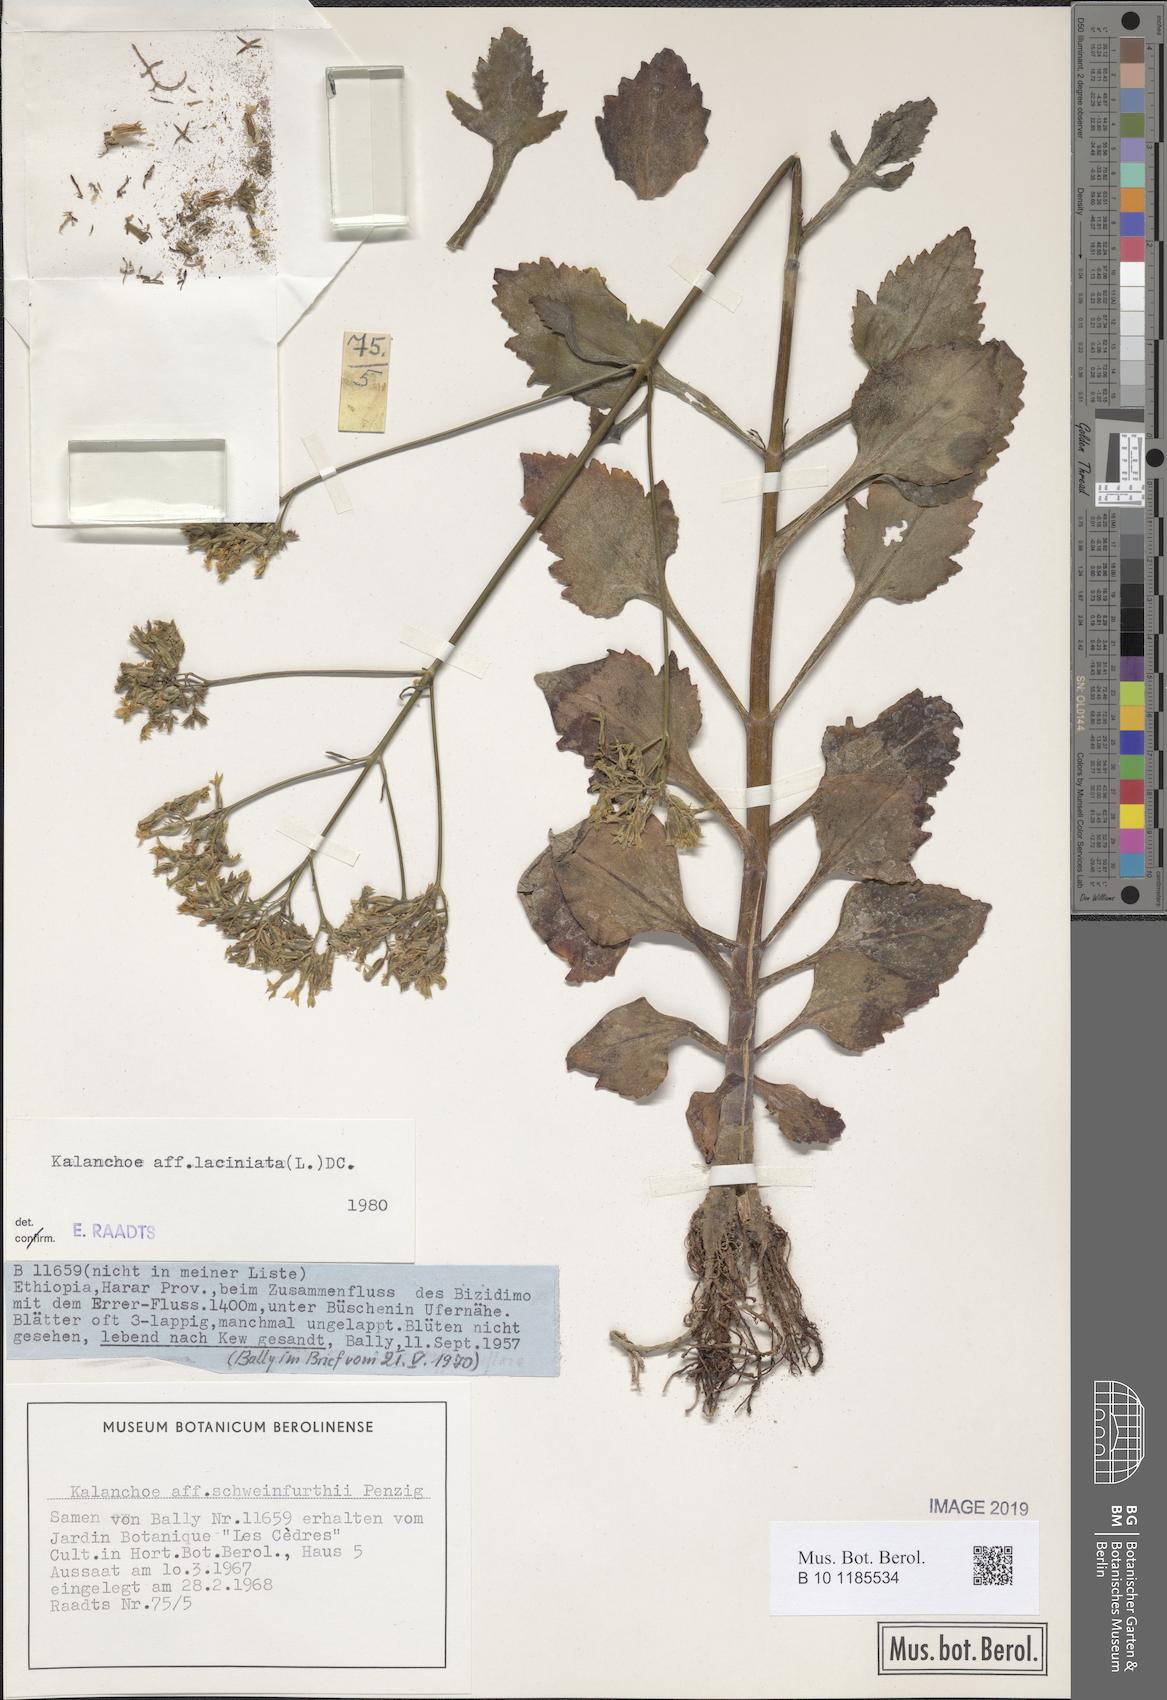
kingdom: Plantae
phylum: Tracheophyta
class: Magnoliopsida
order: Saxifragales
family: Crassulaceae
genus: Kalanchoe
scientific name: Kalanchoe laciniata
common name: Christmastree plant
